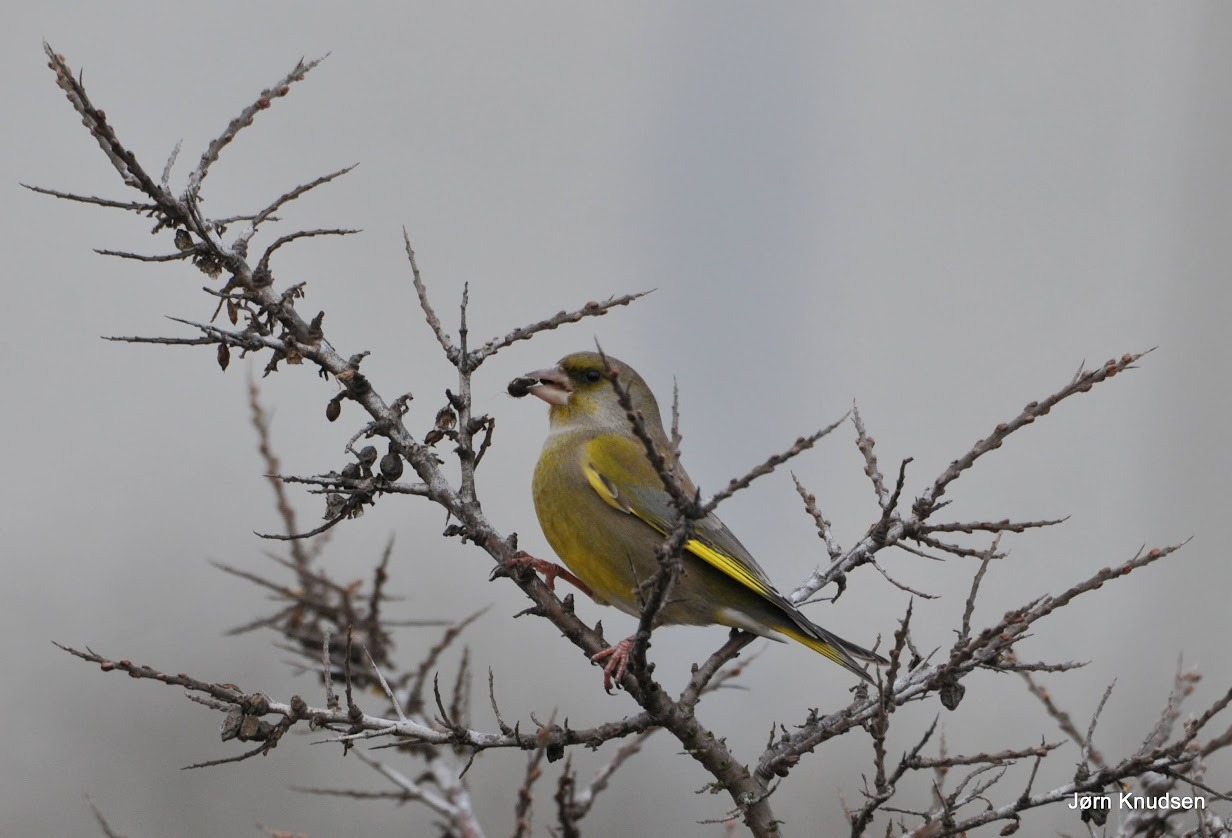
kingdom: Plantae
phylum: Tracheophyta
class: Liliopsida
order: Poales
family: Poaceae
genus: Chloris
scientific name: Chloris chloris
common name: Grønirisk
